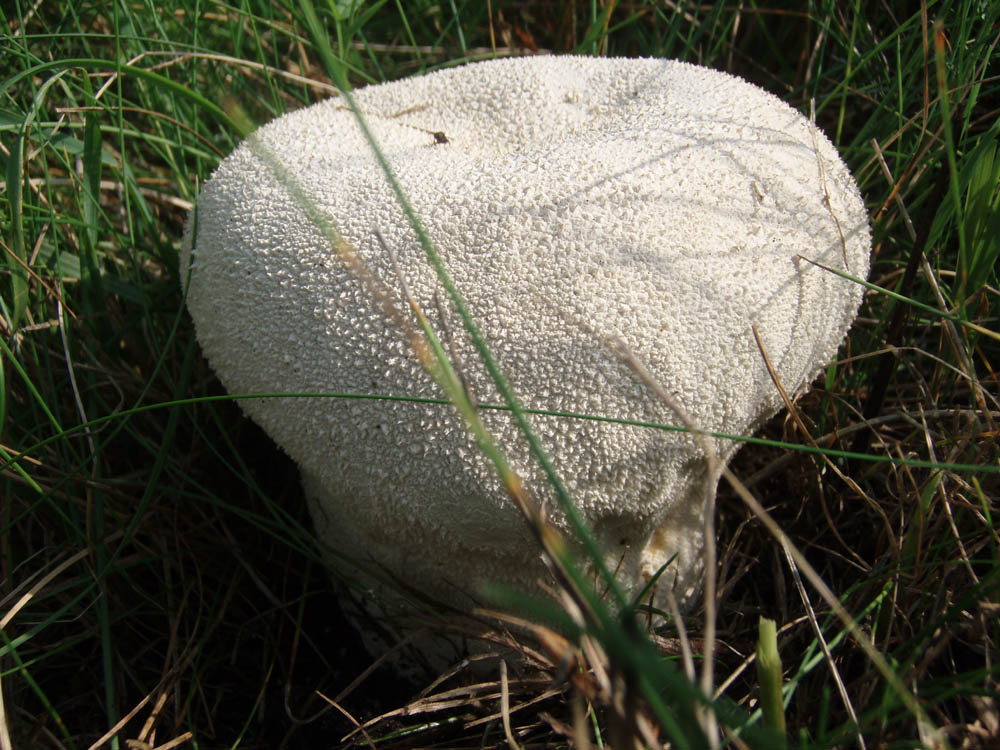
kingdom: Fungi
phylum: Basidiomycota
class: Agaricomycetes
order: Agaricales
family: Lycoperdaceae
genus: Bovistella
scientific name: Bovistella utriformis
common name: skællet støvbold
